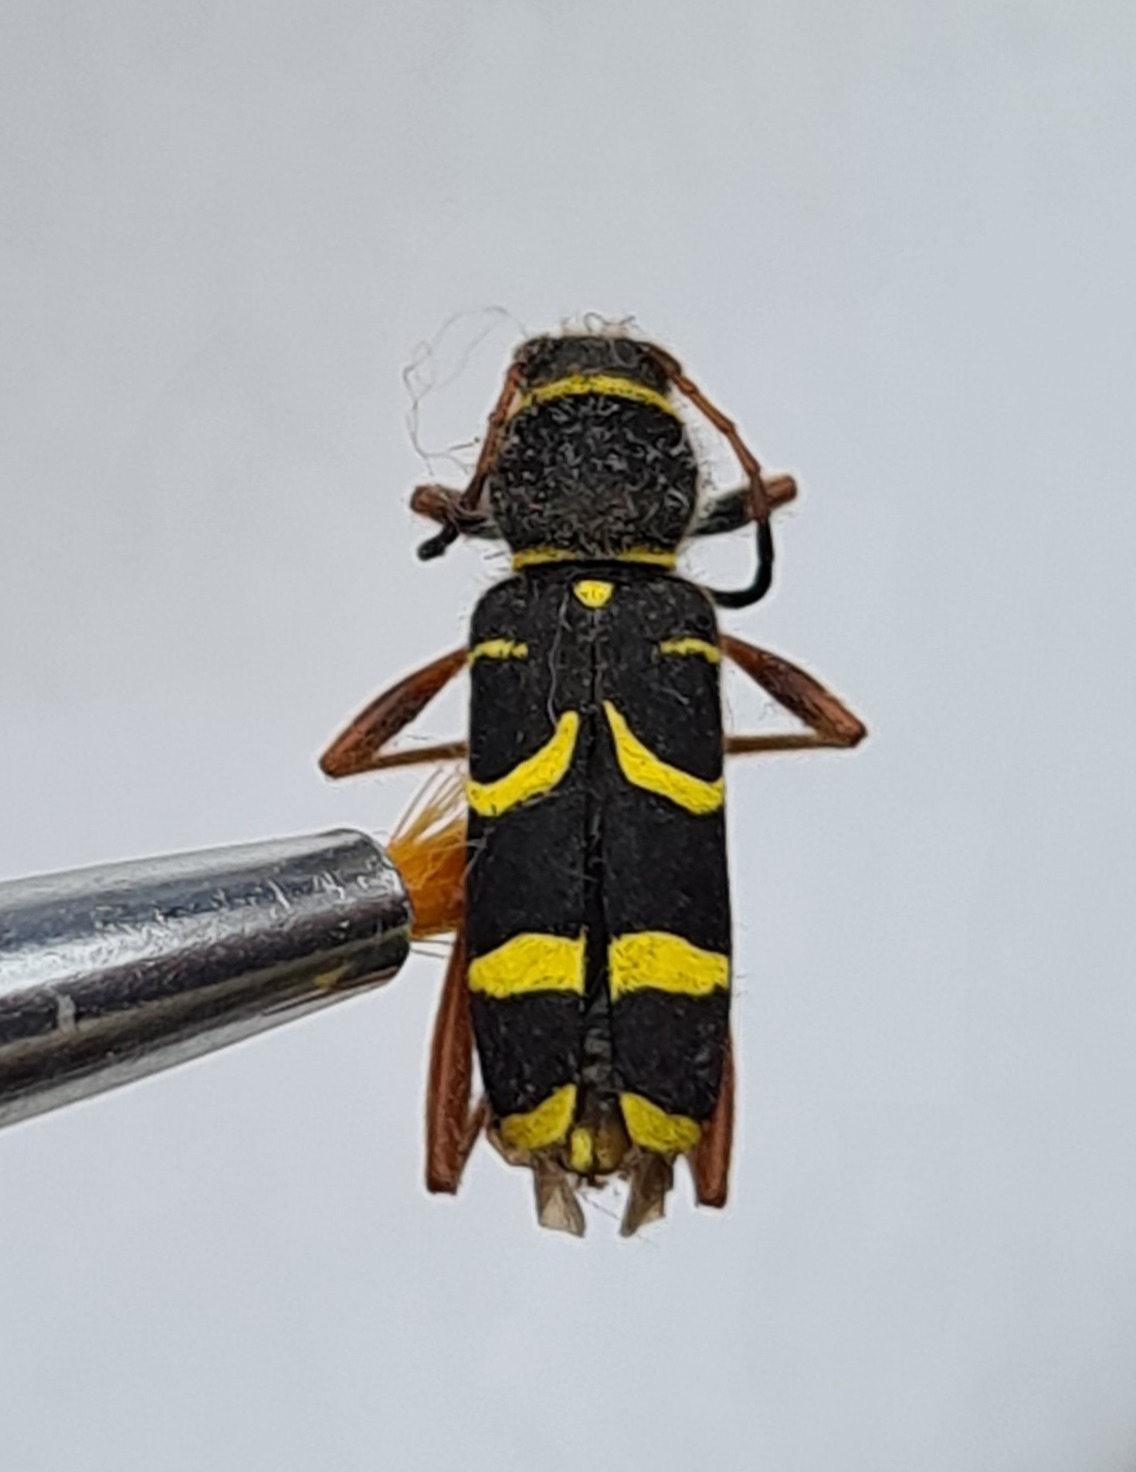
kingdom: Animalia
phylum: Arthropoda
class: Insecta
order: Coleoptera
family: Cerambycidae
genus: Clytus
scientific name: Clytus arietis
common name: Lille hvepsebuk
